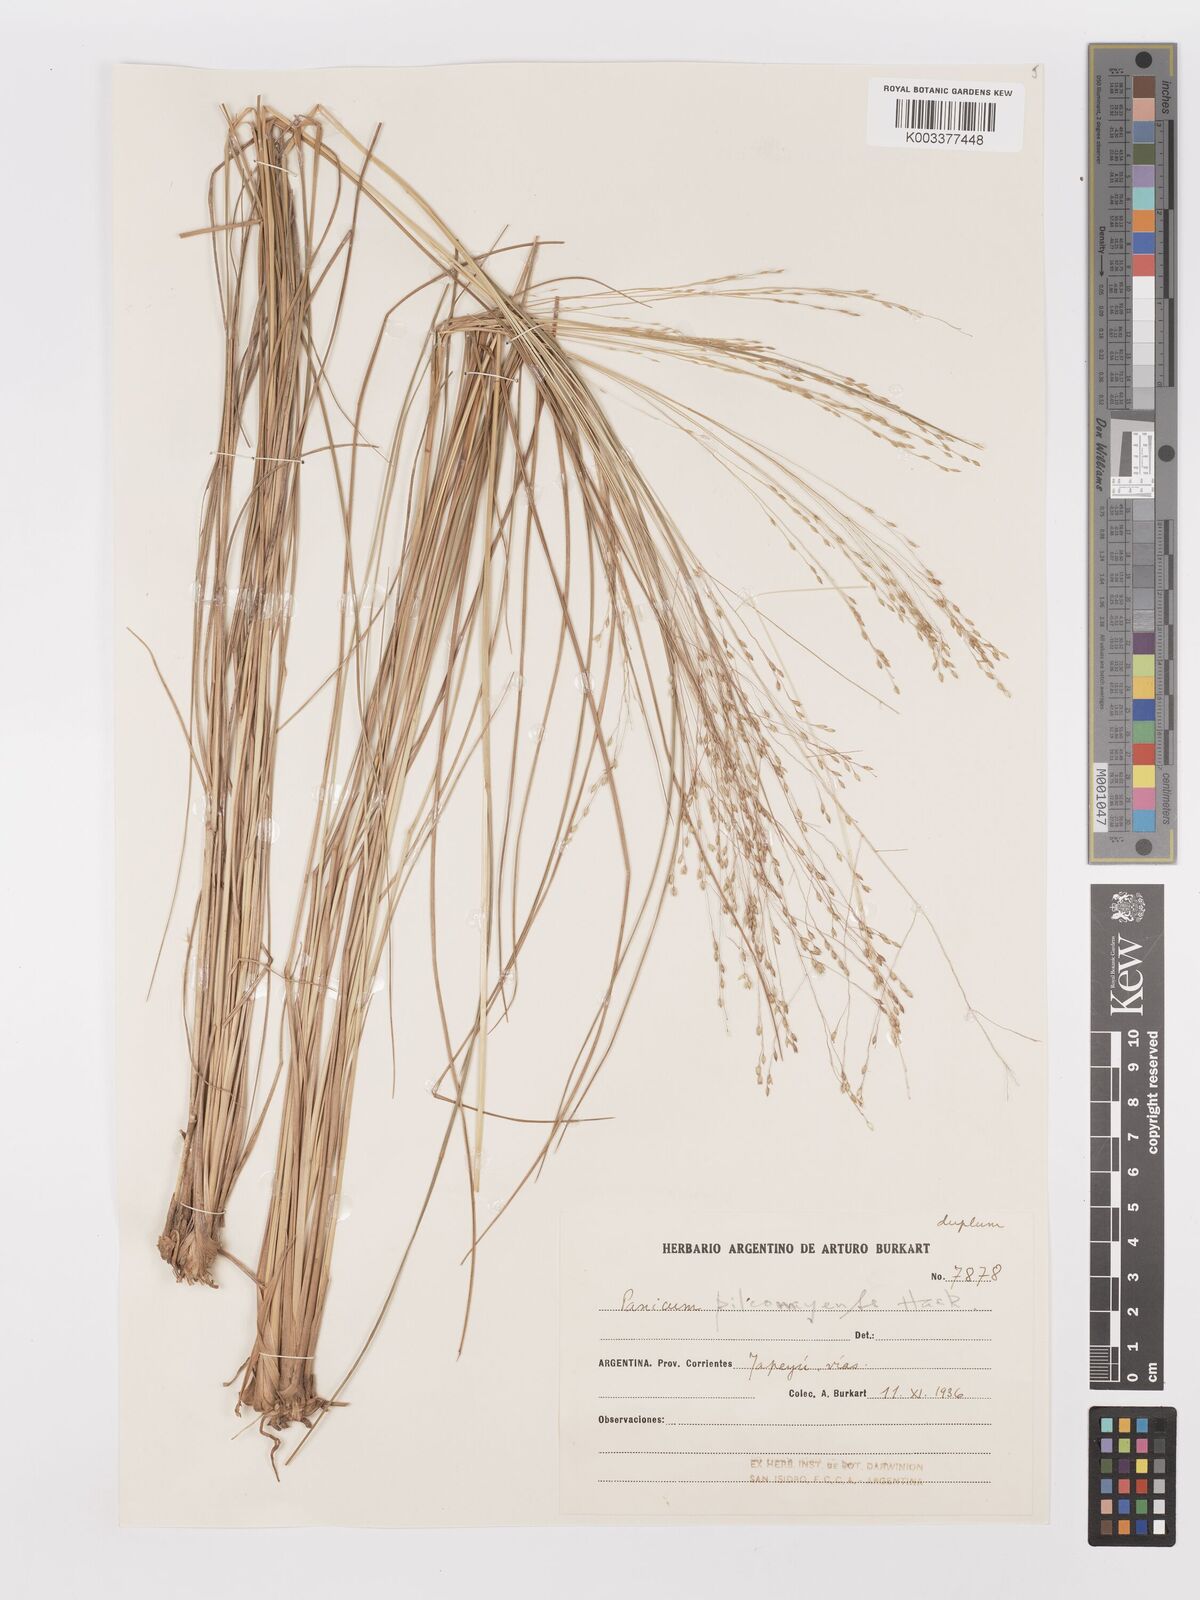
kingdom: Plantae
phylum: Tracheophyta
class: Liliopsida
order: Poales
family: Poaceae
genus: Panicum
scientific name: Panicum bergii
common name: Berg's panicgrass
